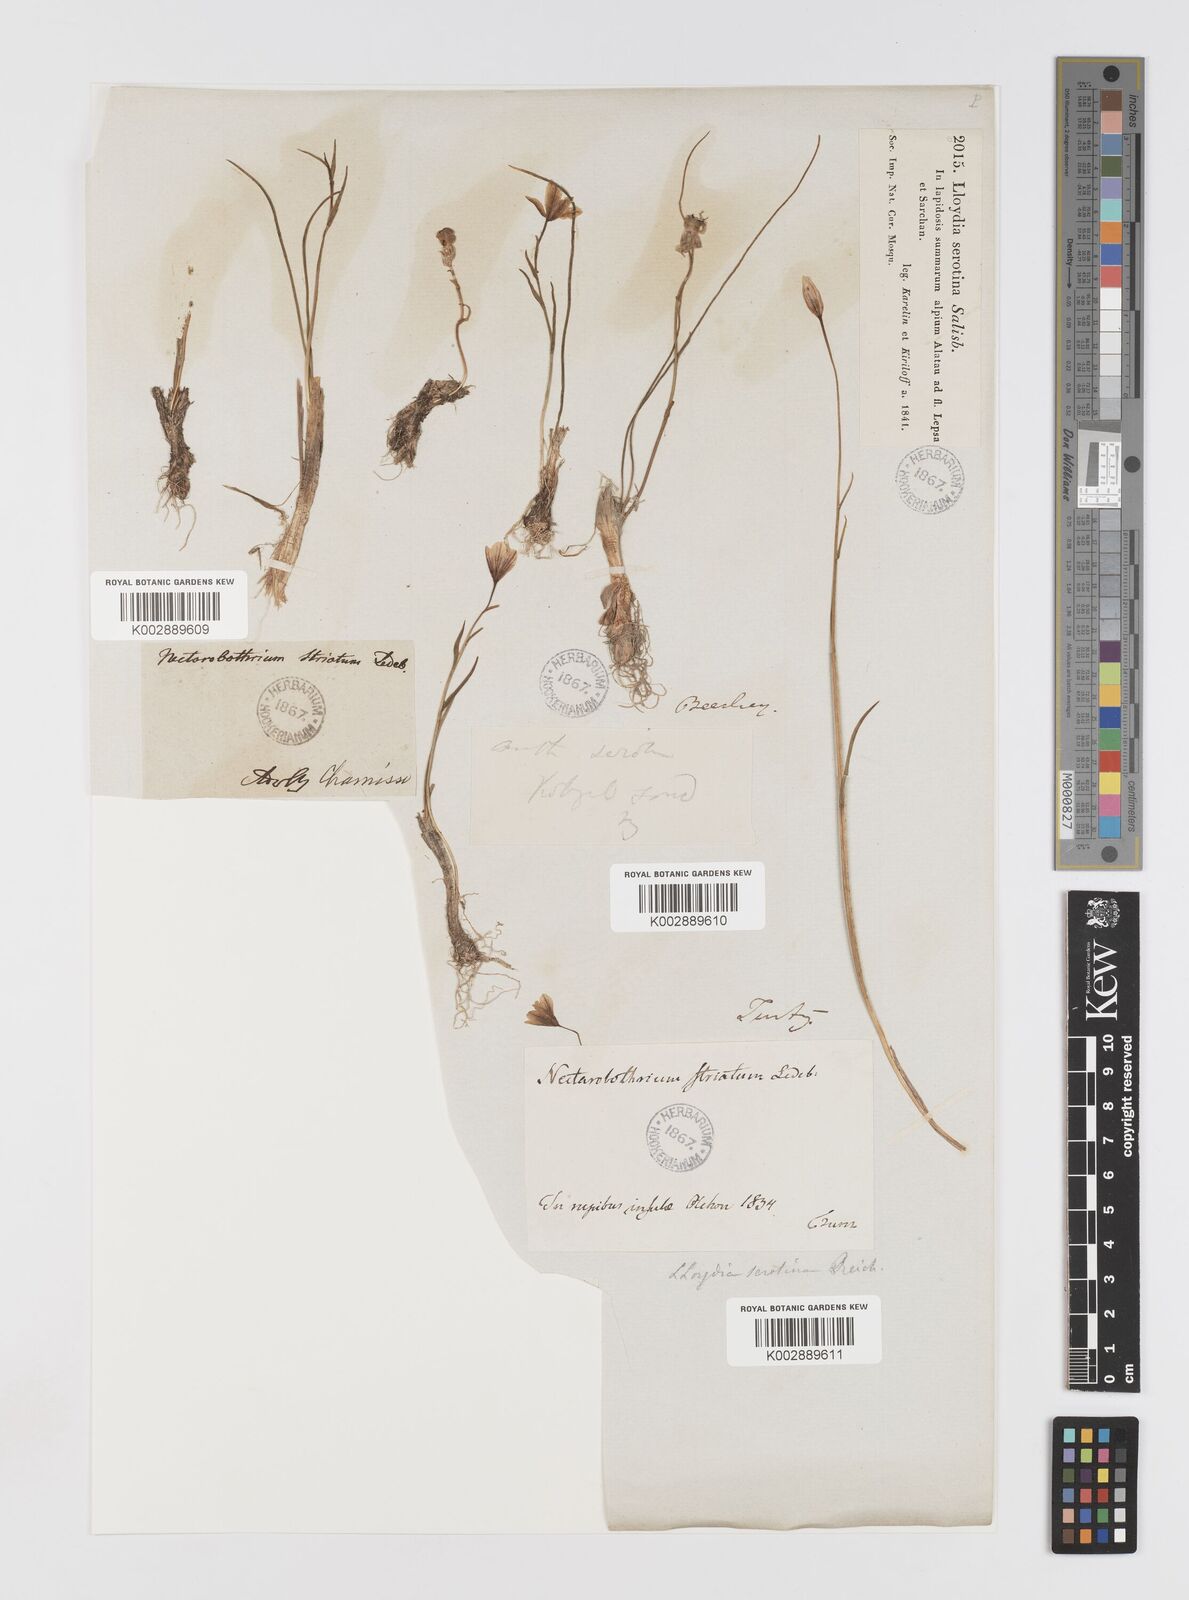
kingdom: Plantae
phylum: Tracheophyta
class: Liliopsida
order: Liliales
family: Liliaceae
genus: Gagea
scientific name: Gagea serotina
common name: Snowdon lily
